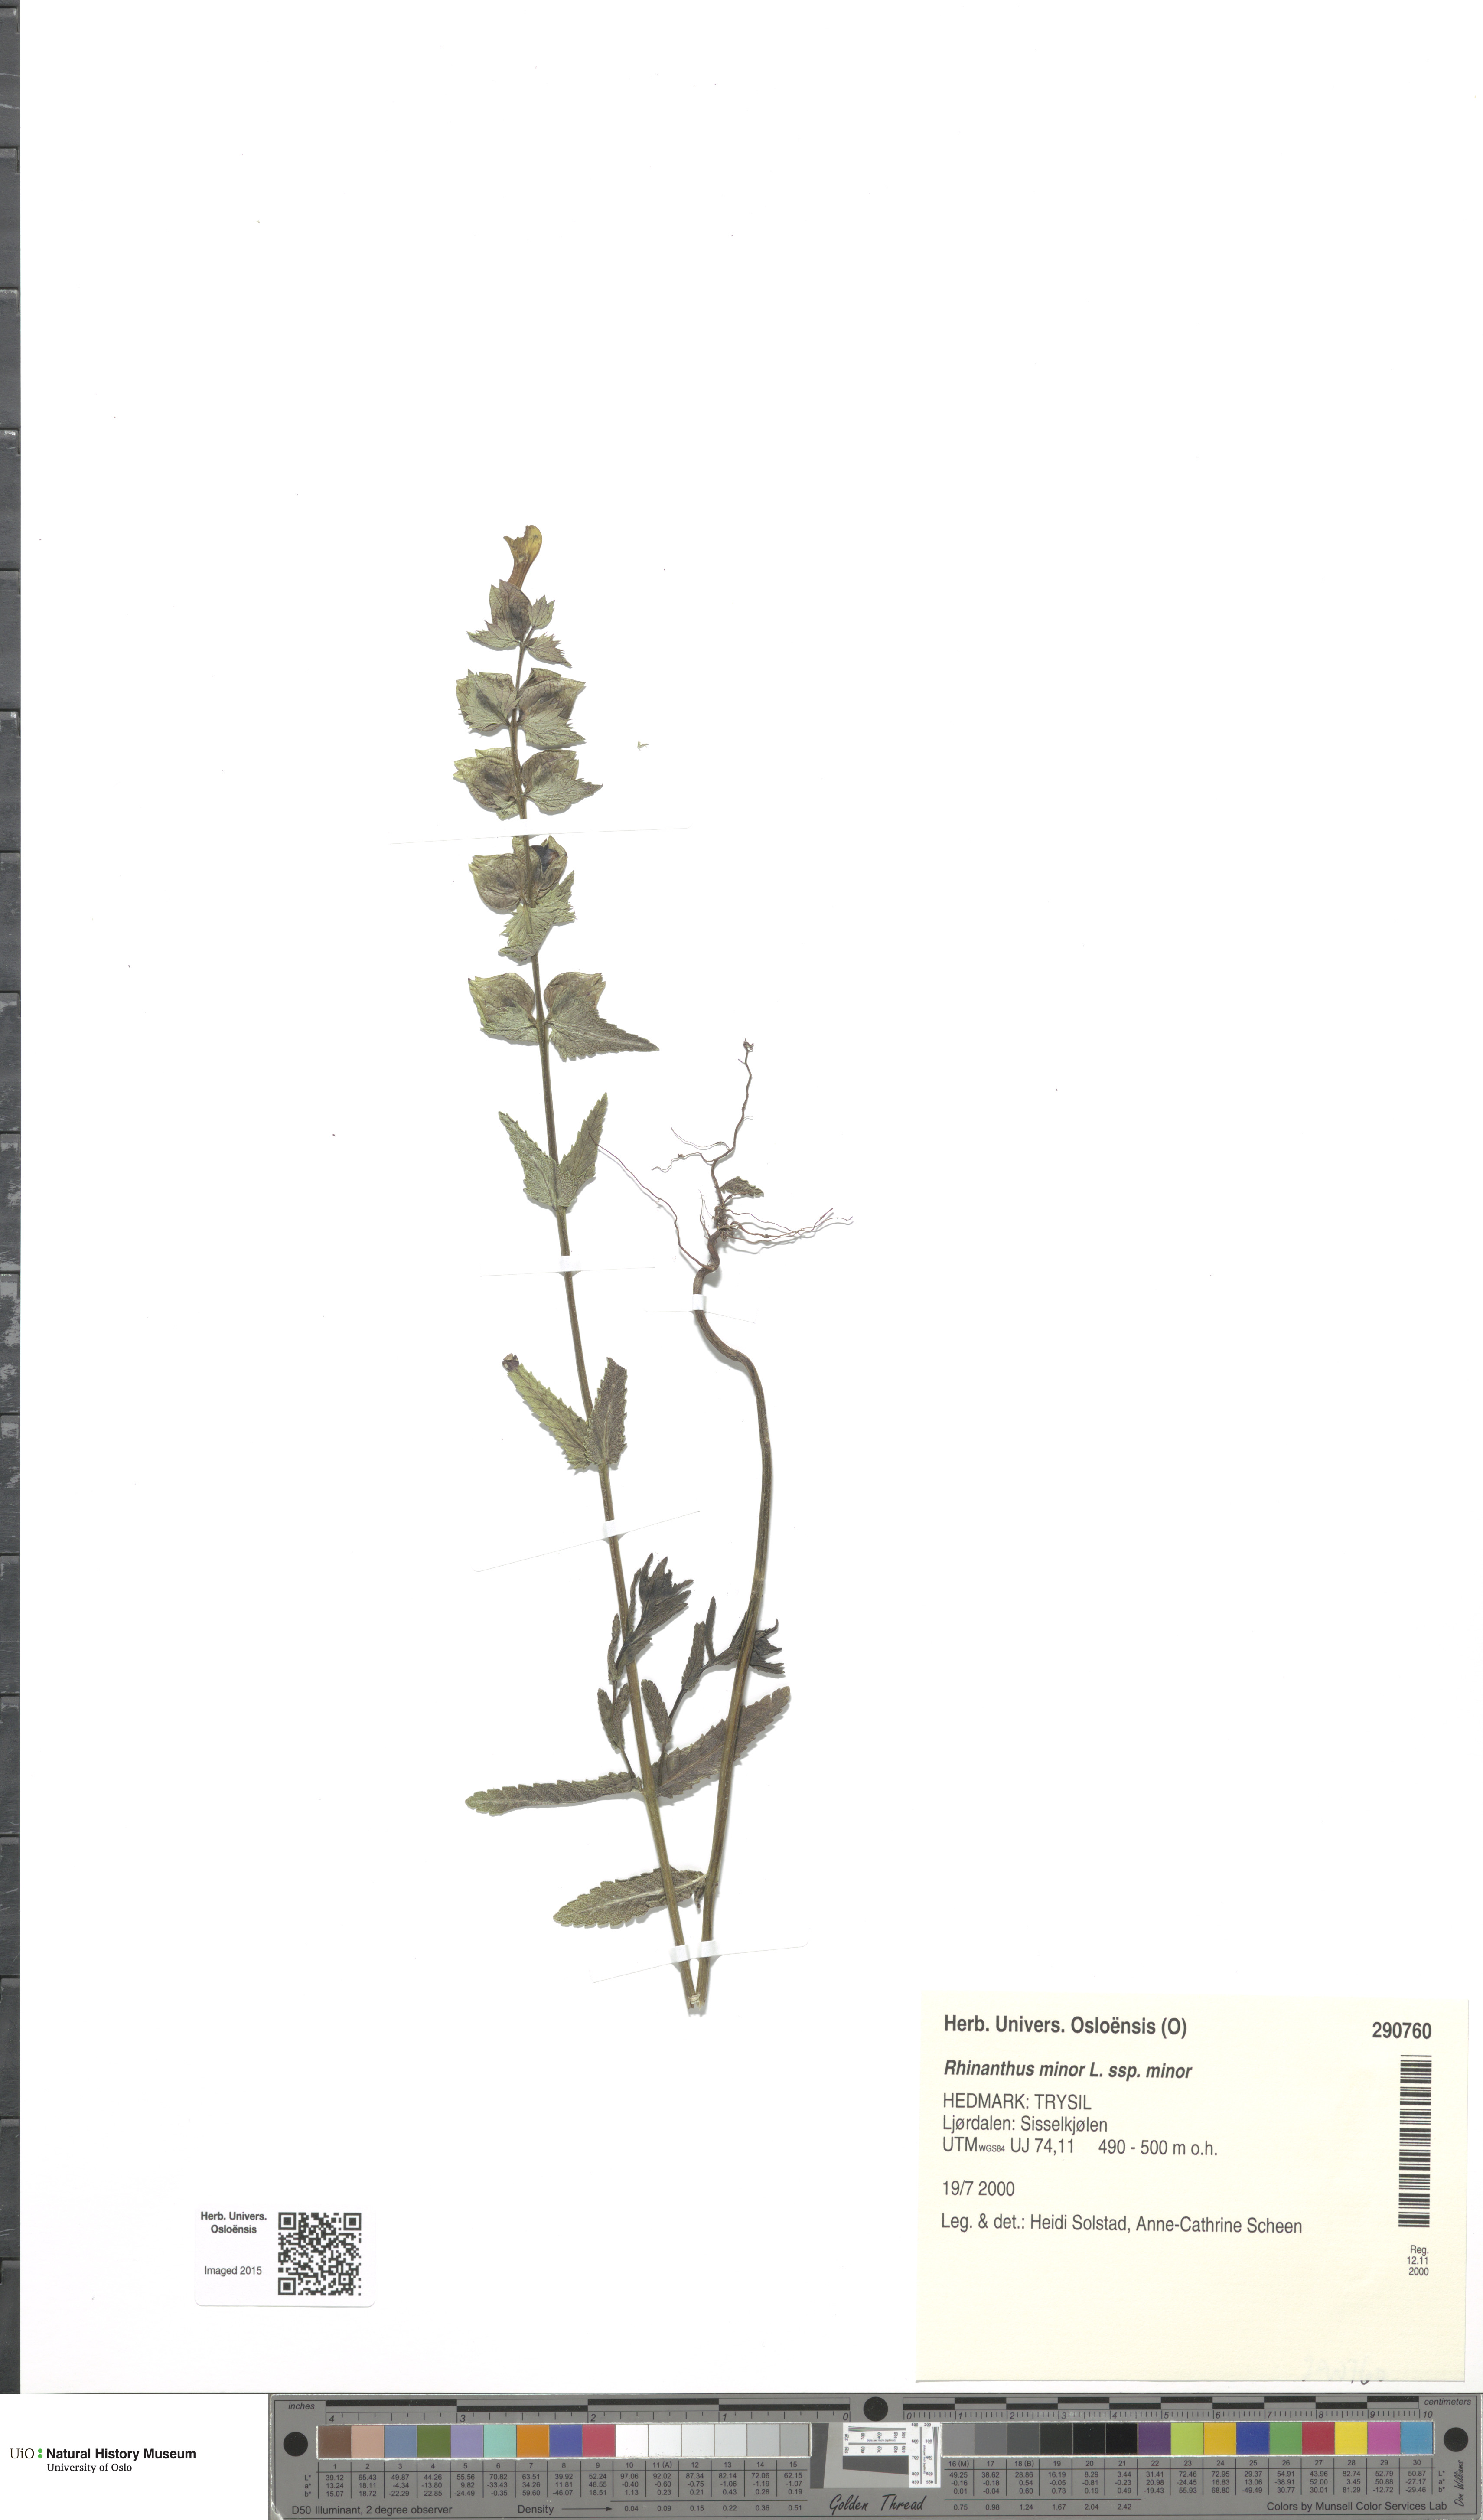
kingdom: Plantae
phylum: Tracheophyta
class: Magnoliopsida
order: Lamiales
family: Orobanchaceae
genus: Rhinanthus
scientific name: Rhinanthus minor
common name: Yellow-rattle
